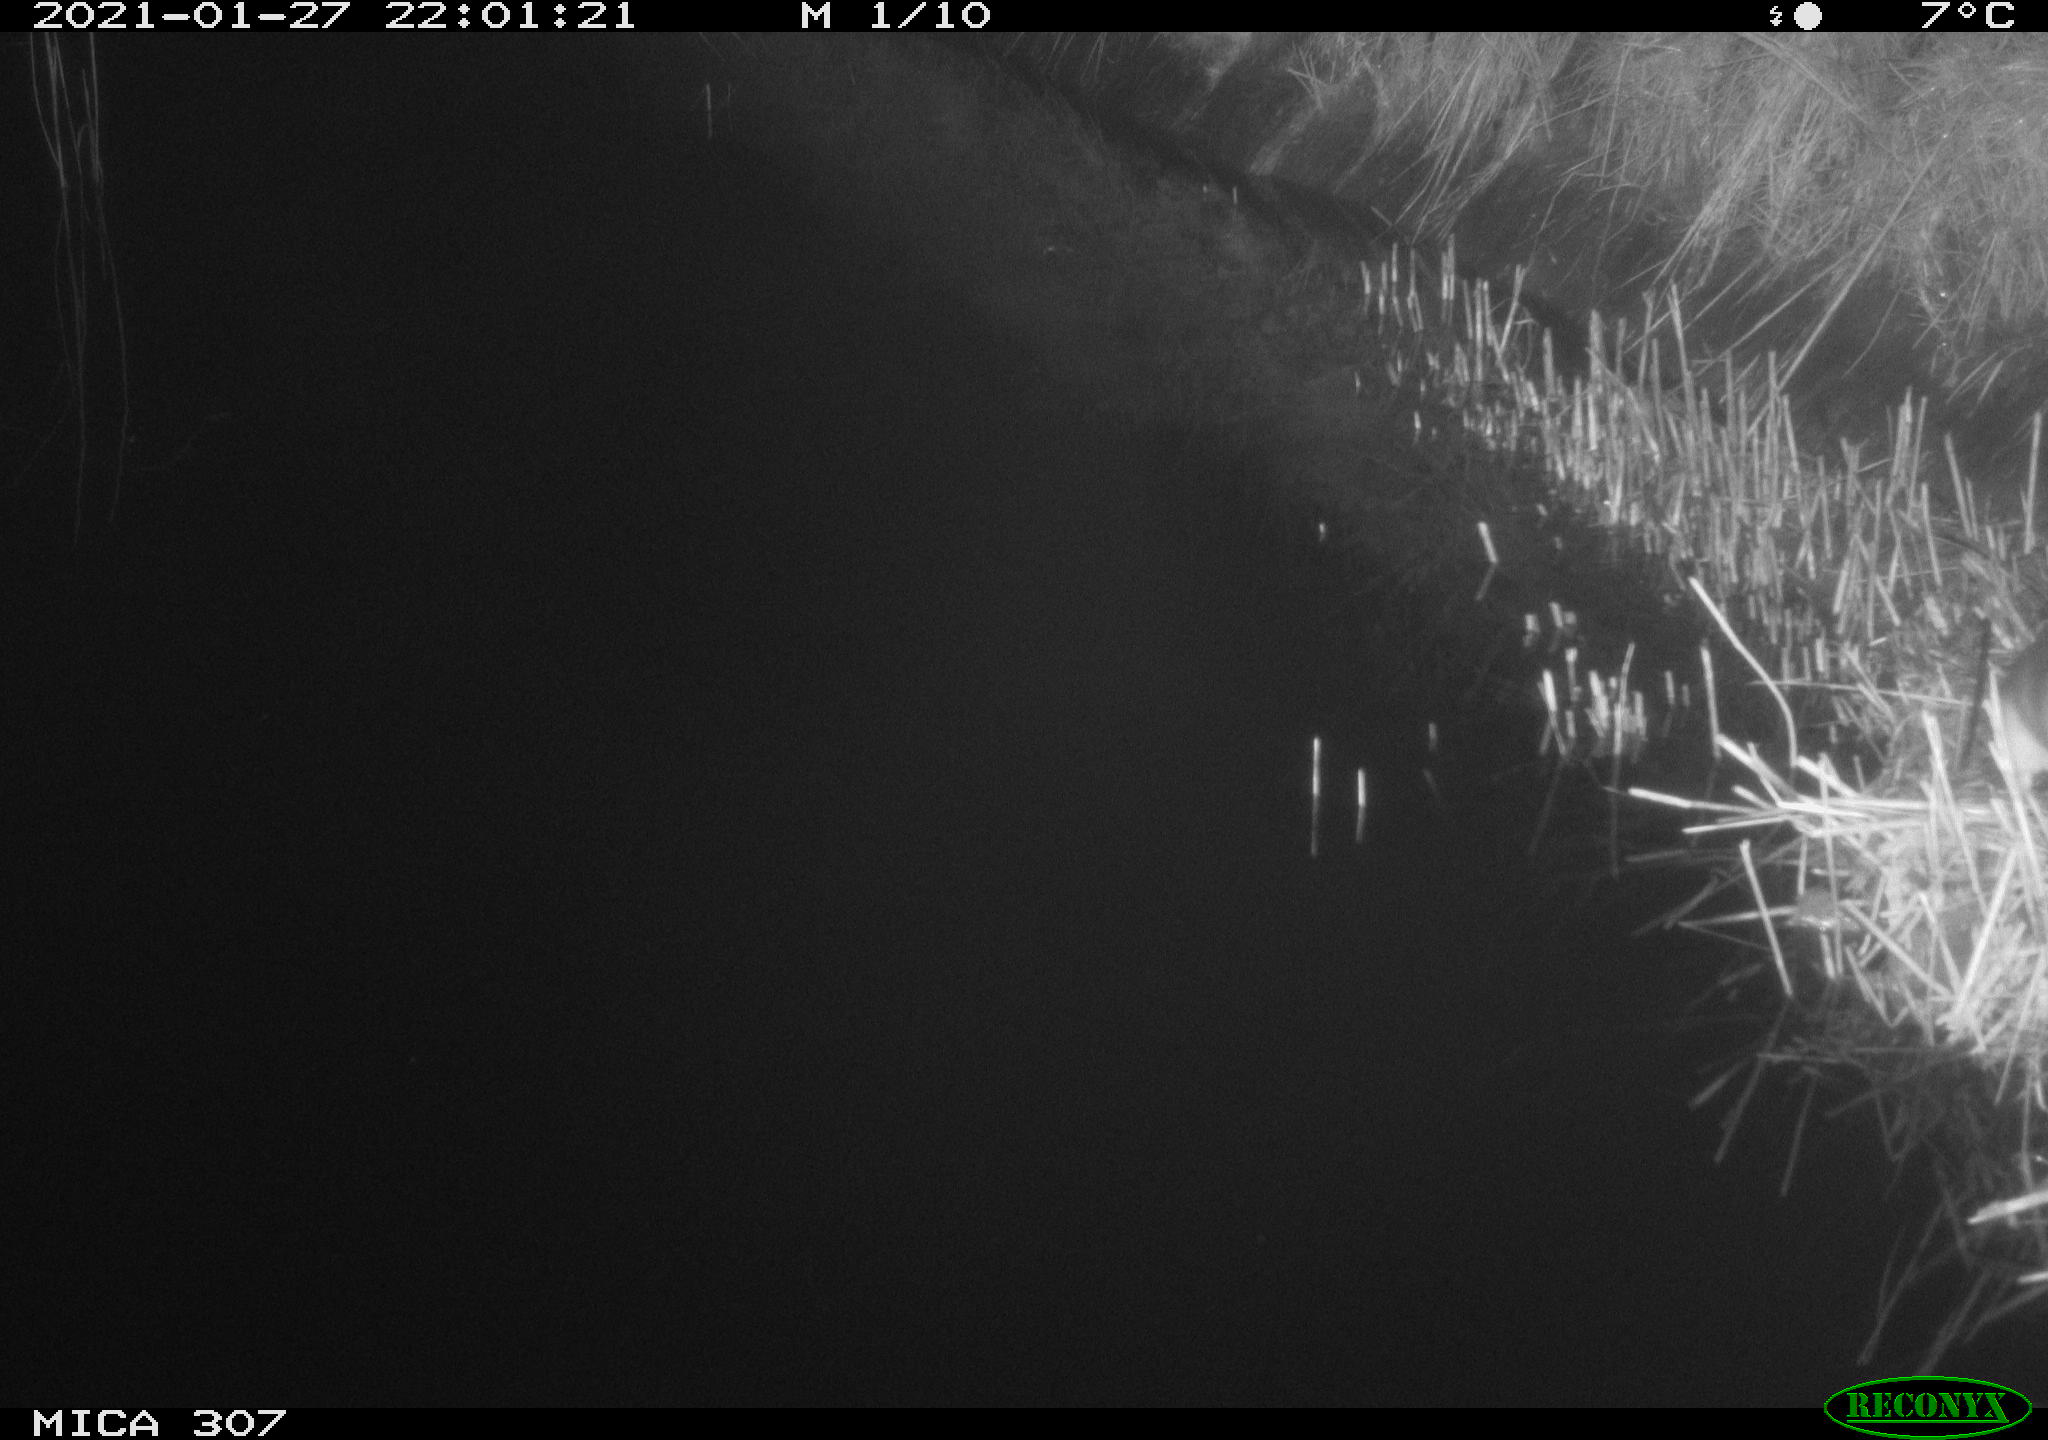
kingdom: Animalia
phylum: Chordata
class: Mammalia
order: Rodentia
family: Muridae
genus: Rattus
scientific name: Rattus norvegicus
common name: Brown rat
